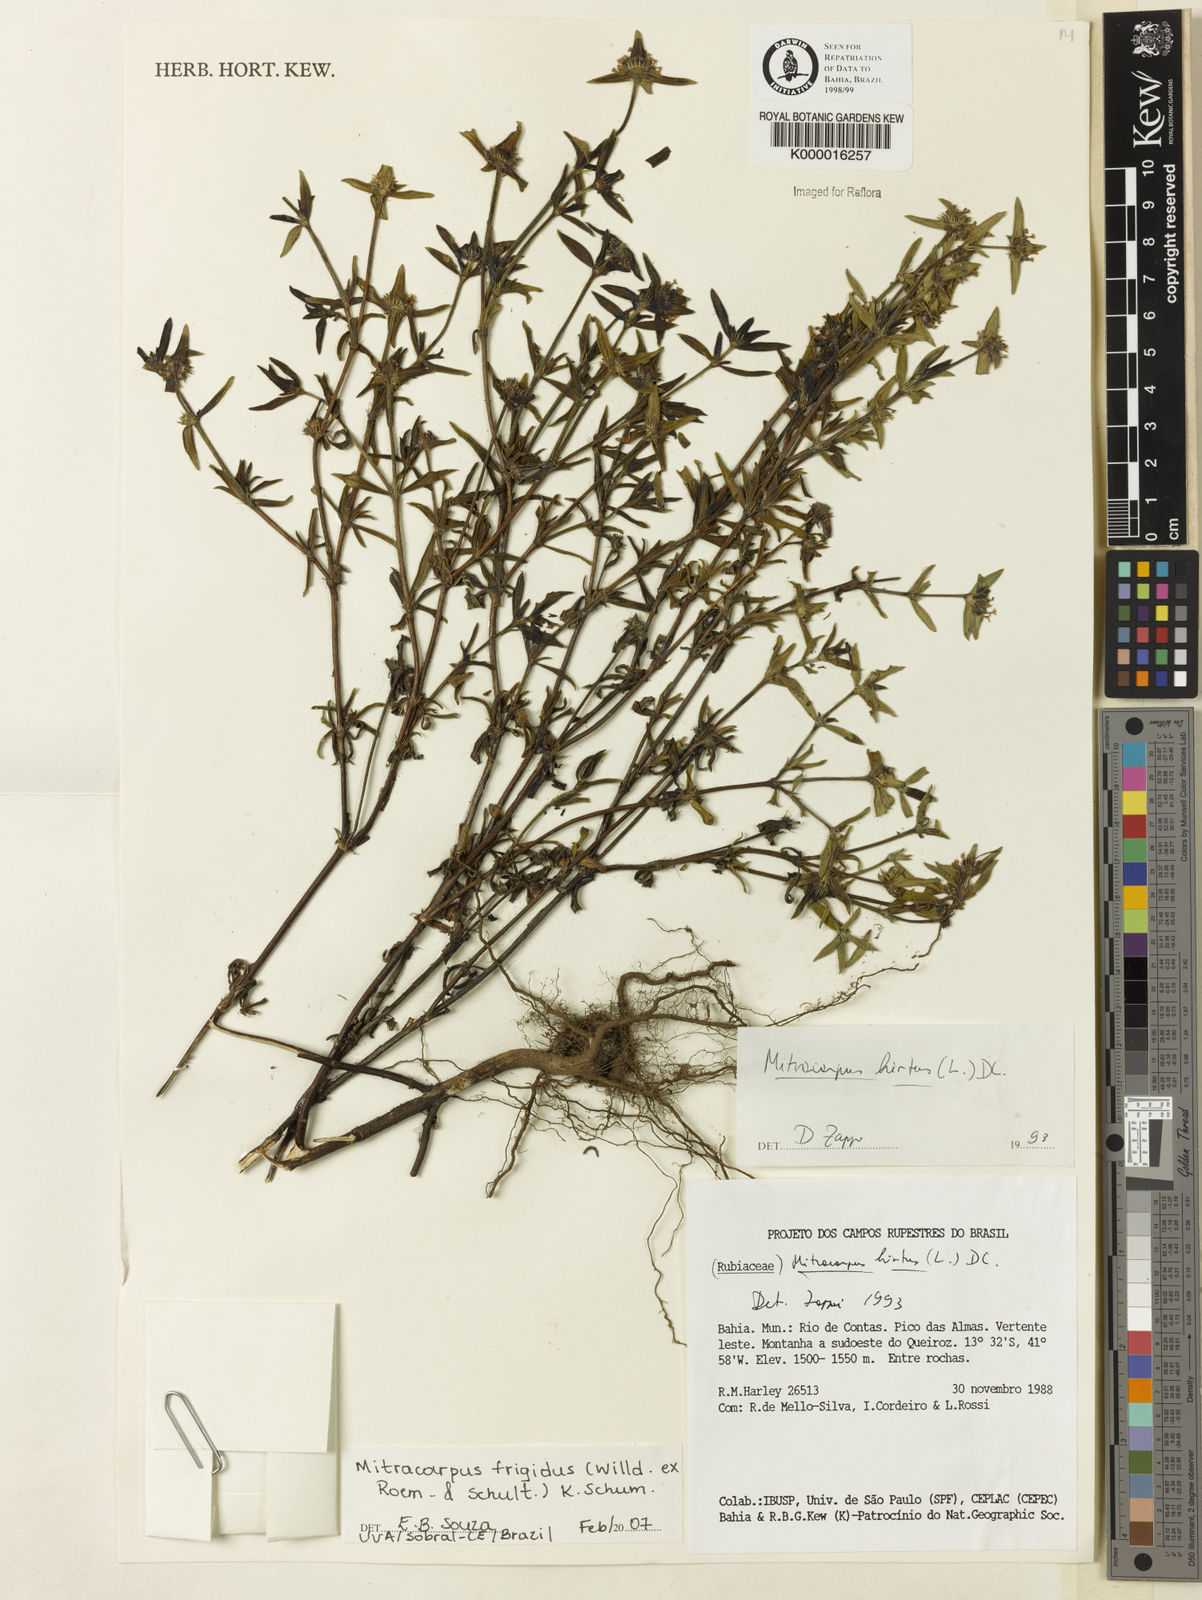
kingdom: Plantae
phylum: Tracheophyta
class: Magnoliopsida
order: Gentianales
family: Rubiaceae
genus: Mitracarpus
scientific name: Mitracarpus frigidus
